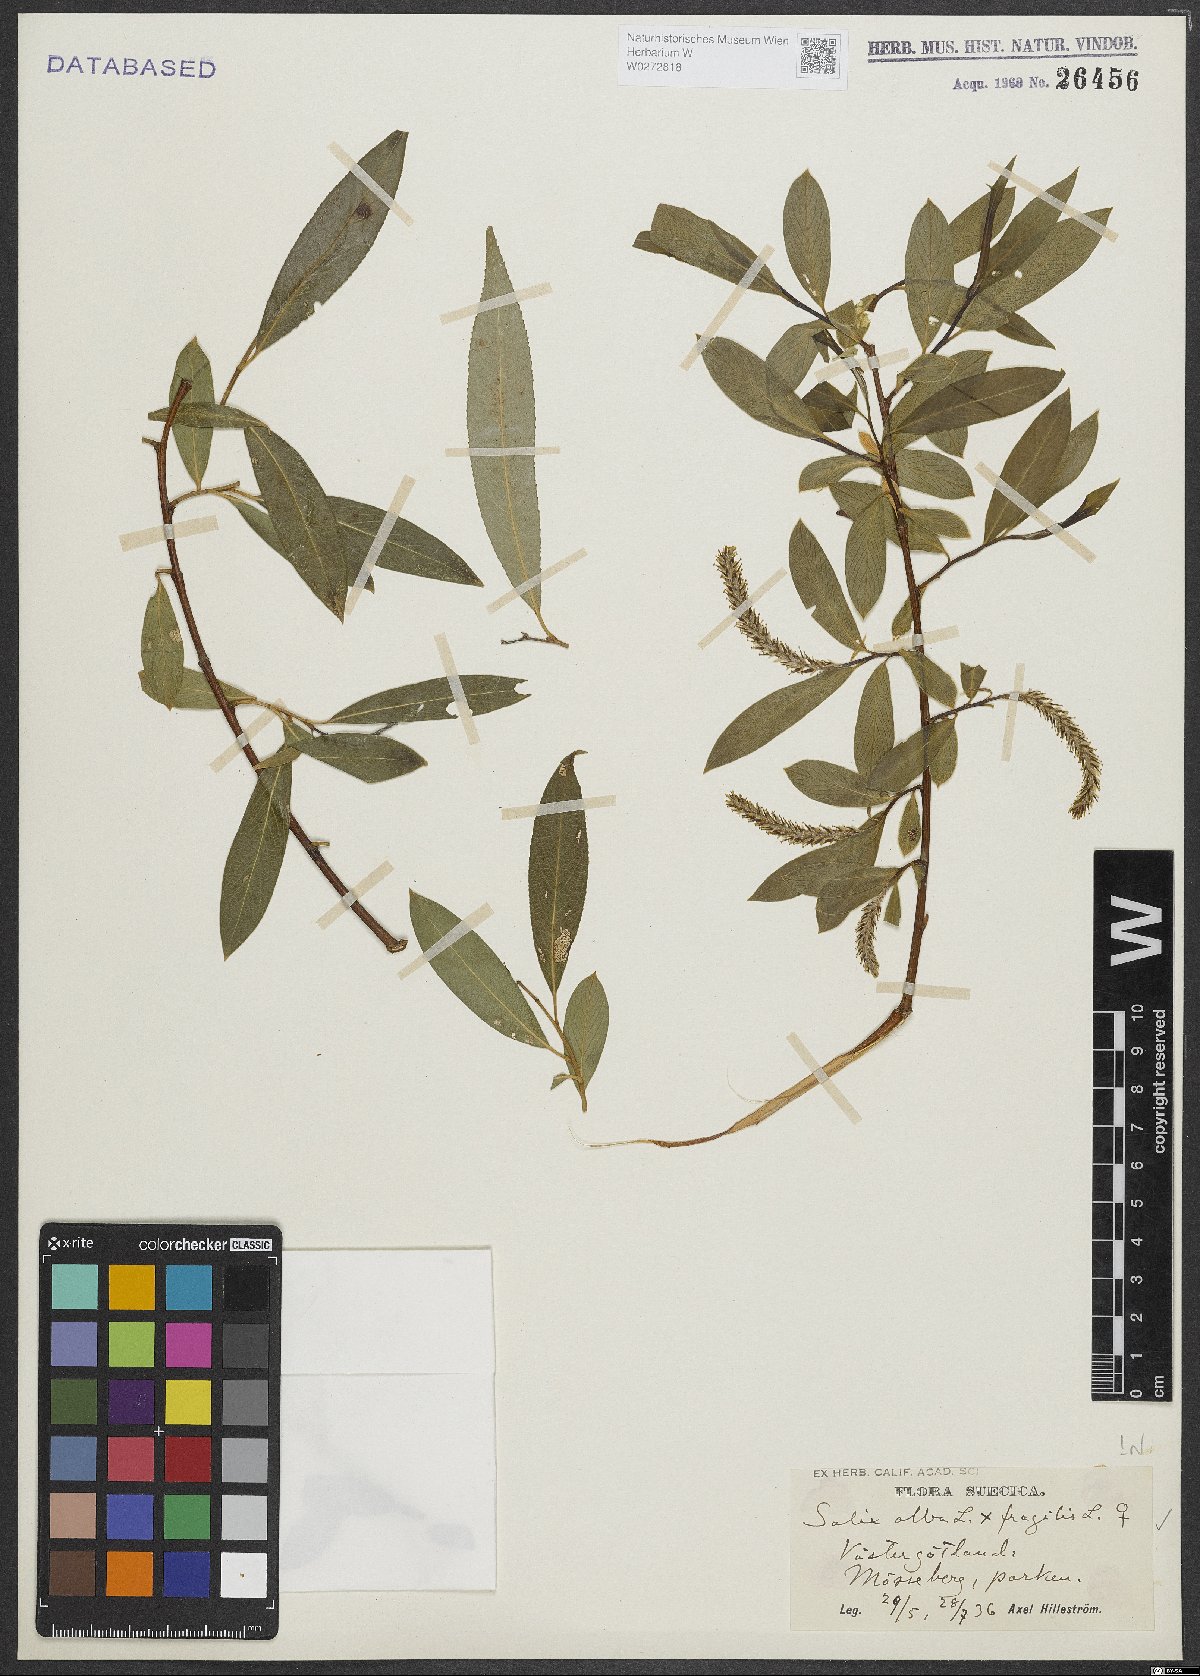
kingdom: Plantae
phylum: Tracheophyta
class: Magnoliopsida
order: Malpighiales
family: Salicaceae
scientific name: Salicaceae
